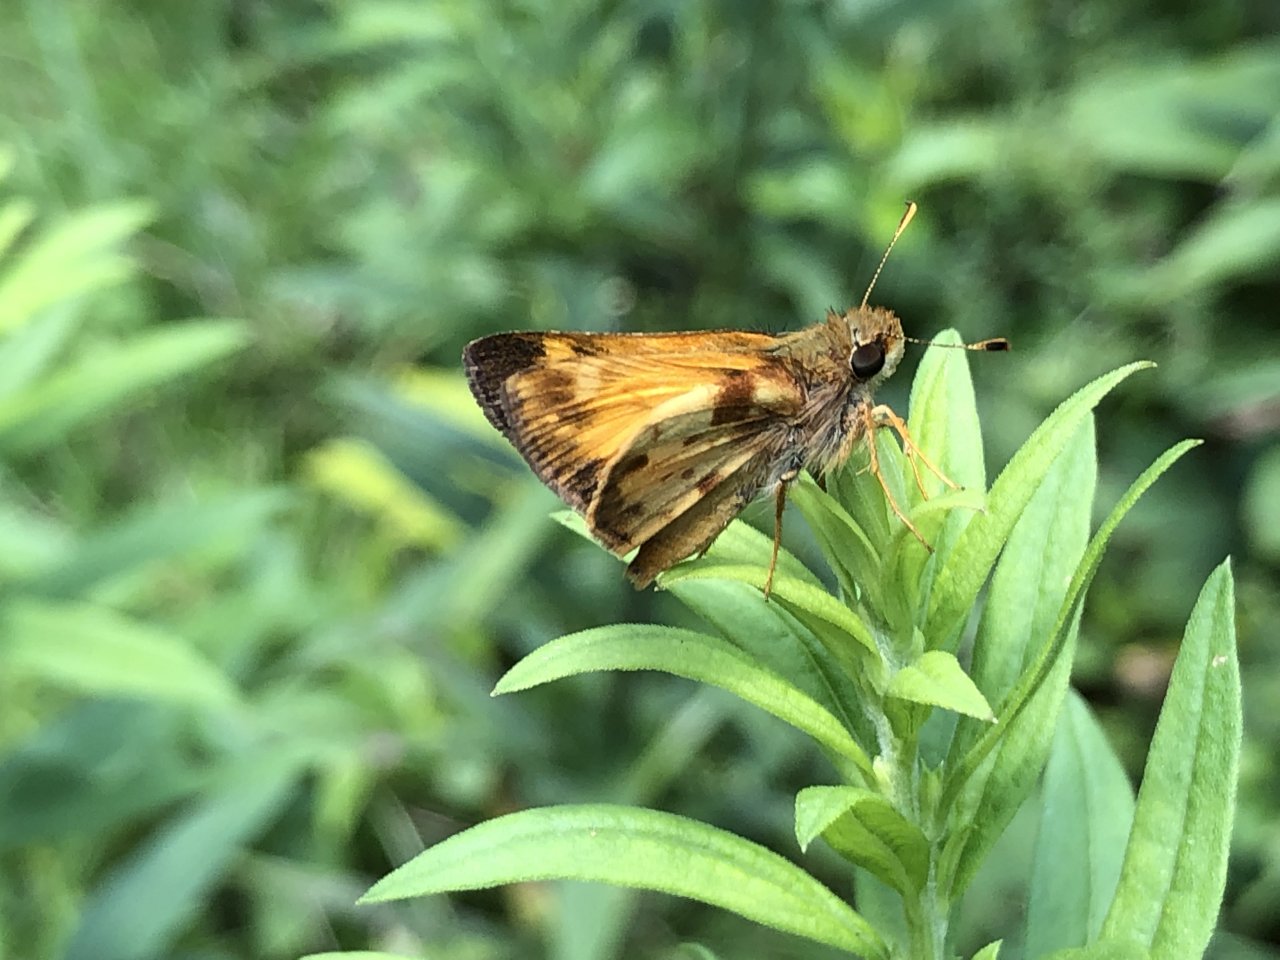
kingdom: Animalia
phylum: Arthropoda
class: Insecta
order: Lepidoptera
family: Hesperiidae
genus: Lon
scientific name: Lon zabulon
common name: Zabulon Skipper
